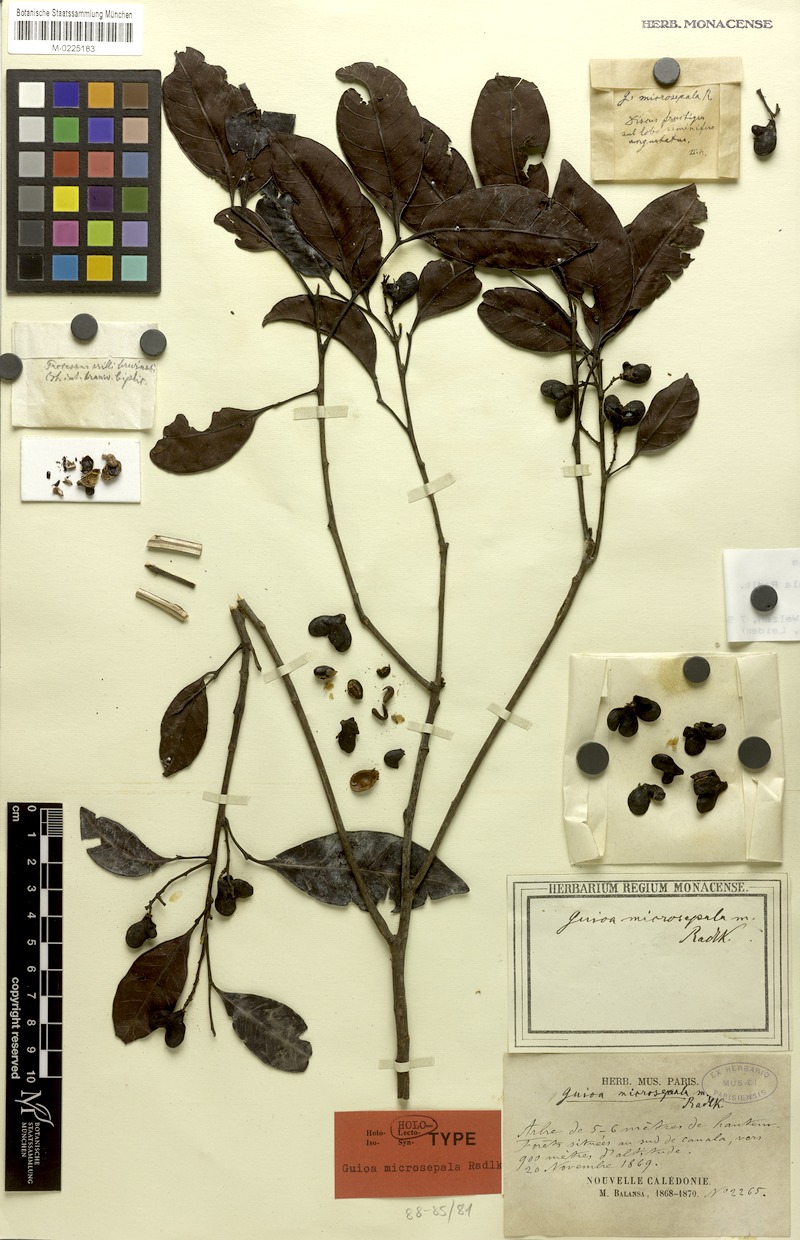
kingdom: Plantae
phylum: Tracheophyta
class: Magnoliopsida
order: Sapindales
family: Sapindaceae
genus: Guioa
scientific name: Guioa microsepala
